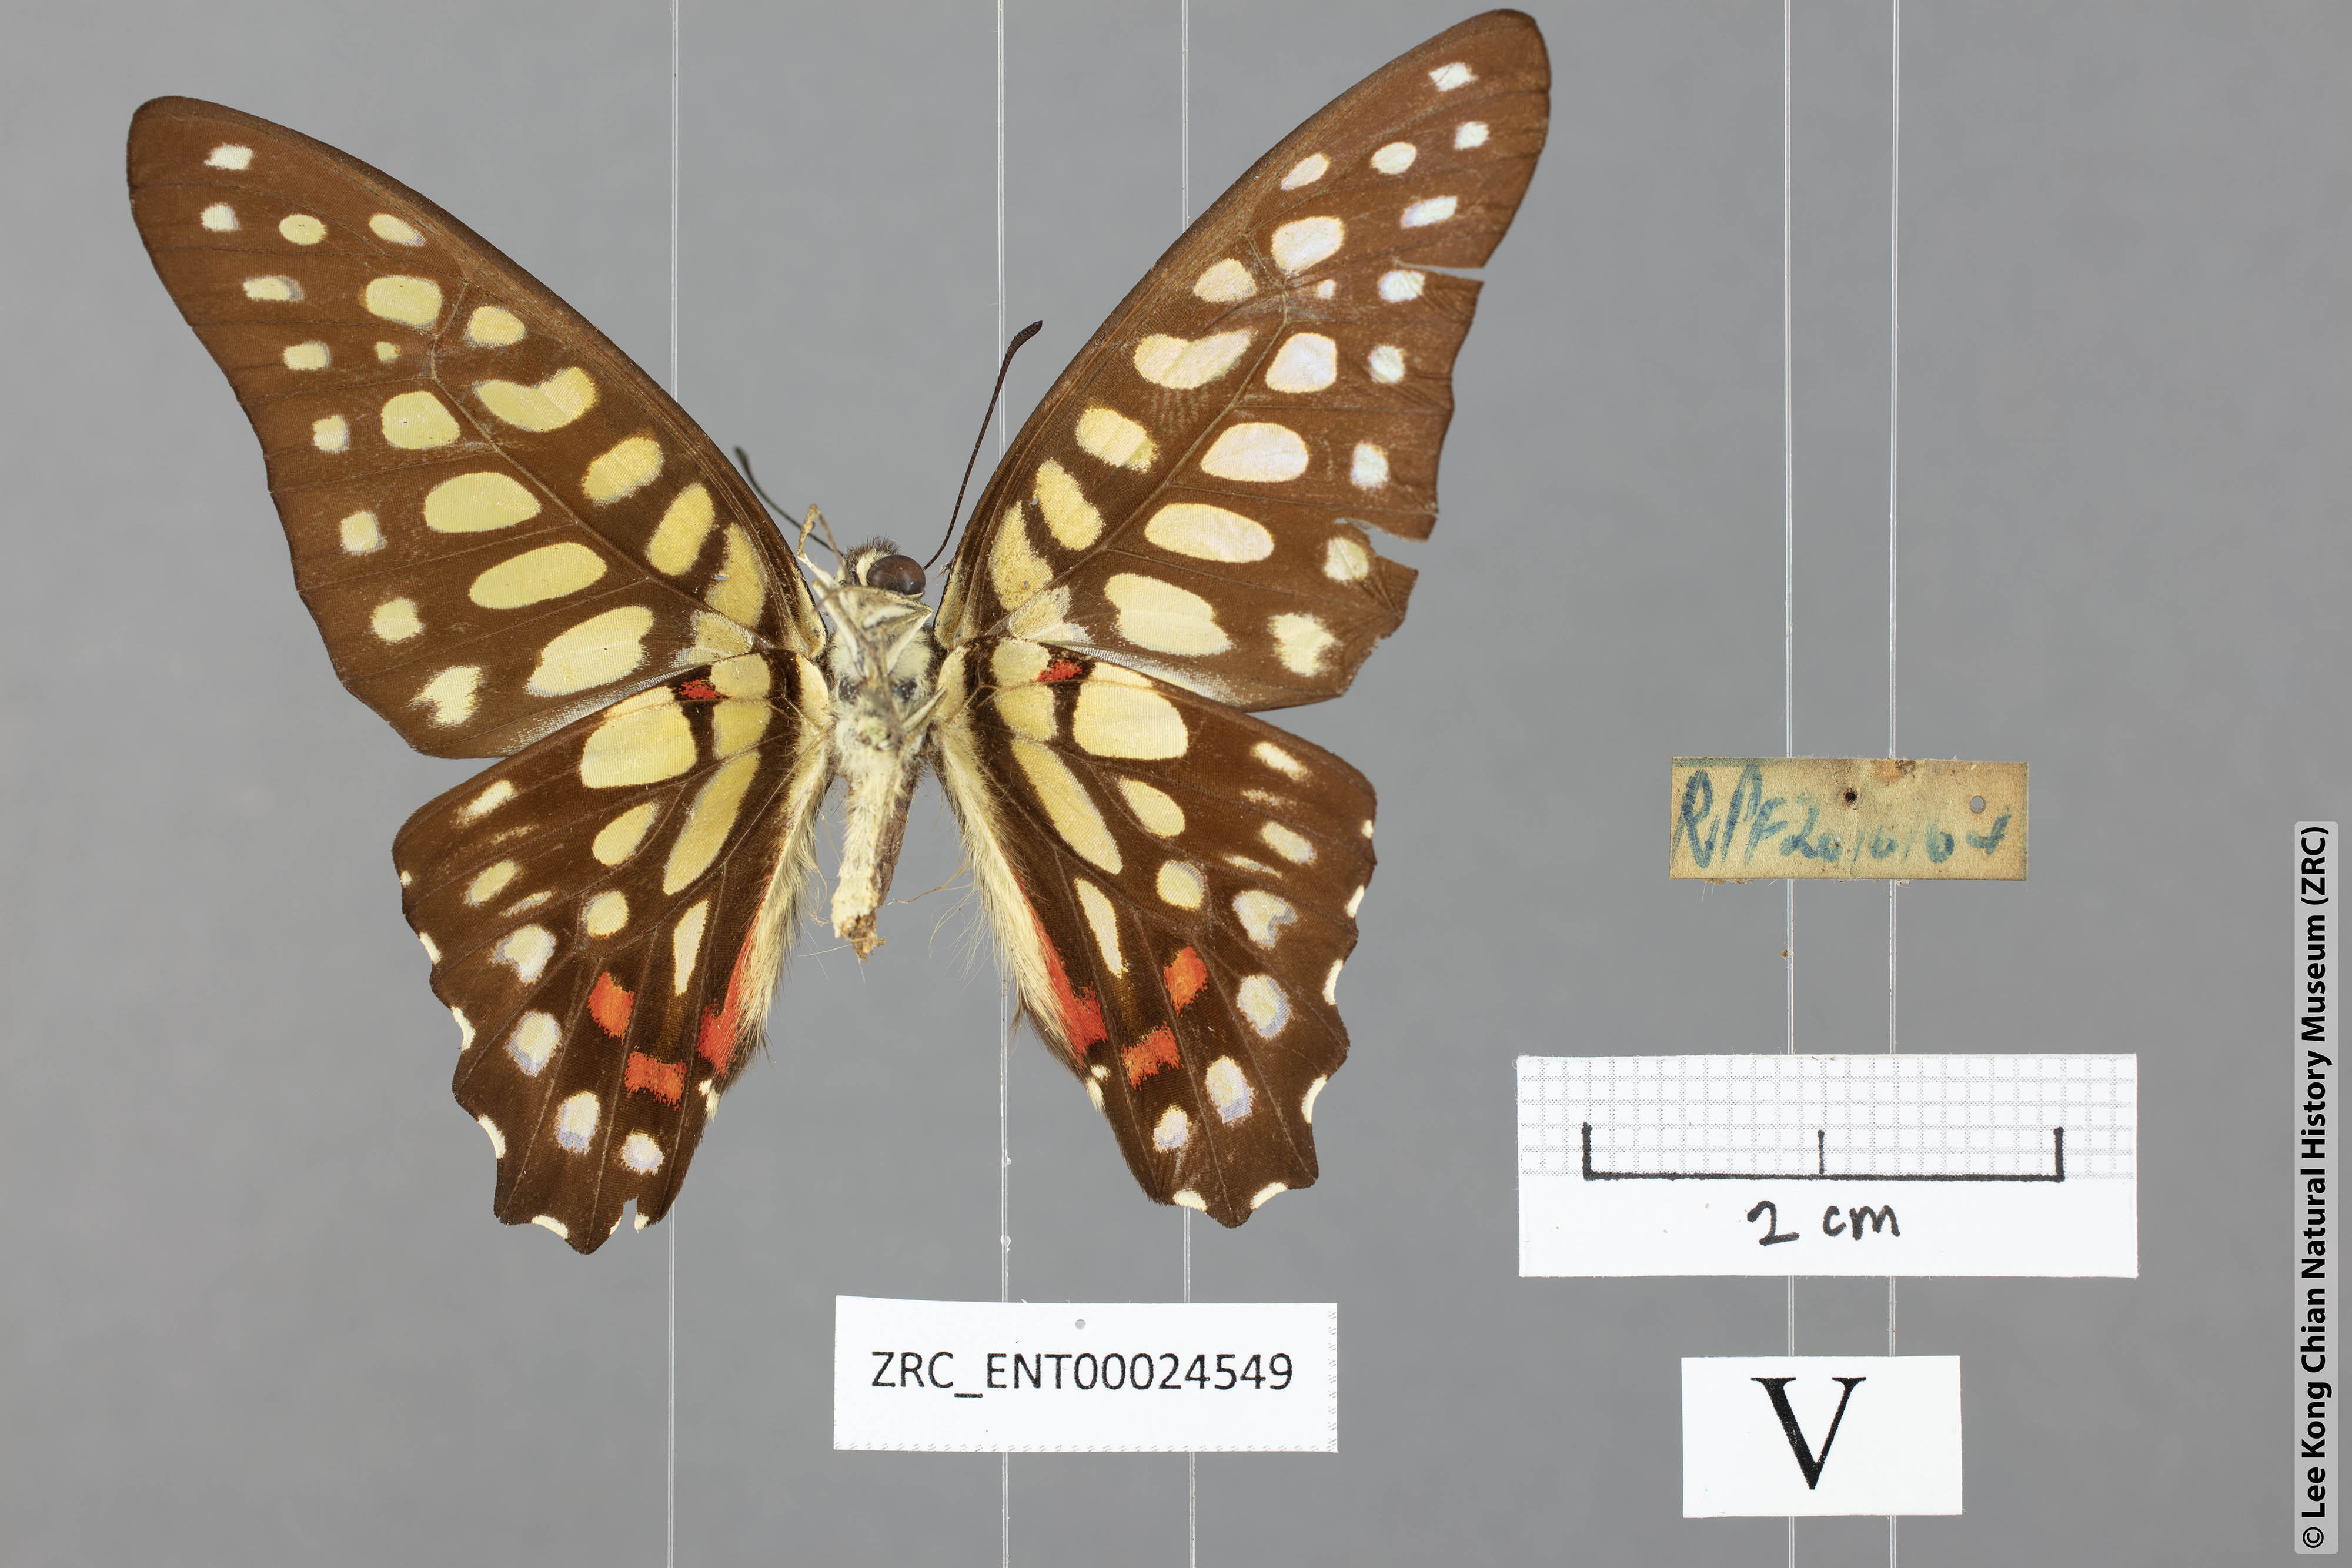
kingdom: Animalia
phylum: Arthropoda
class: Insecta
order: Lepidoptera
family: Papilionidae
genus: Graphium
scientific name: Graphium arycles
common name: Spotted jay
